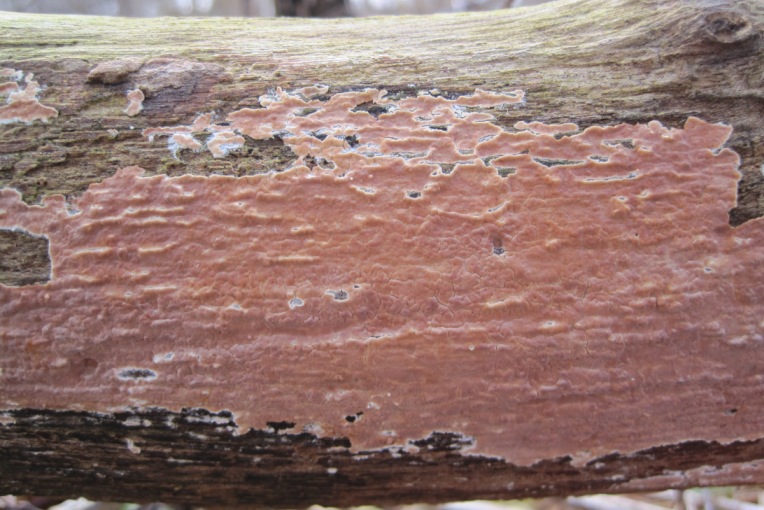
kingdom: Fungi
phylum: Basidiomycota
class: Agaricomycetes
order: Agaricales
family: Physalacriaceae
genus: Cylindrobasidium
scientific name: Cylindrobasidium evolvens
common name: sprækkehinde
